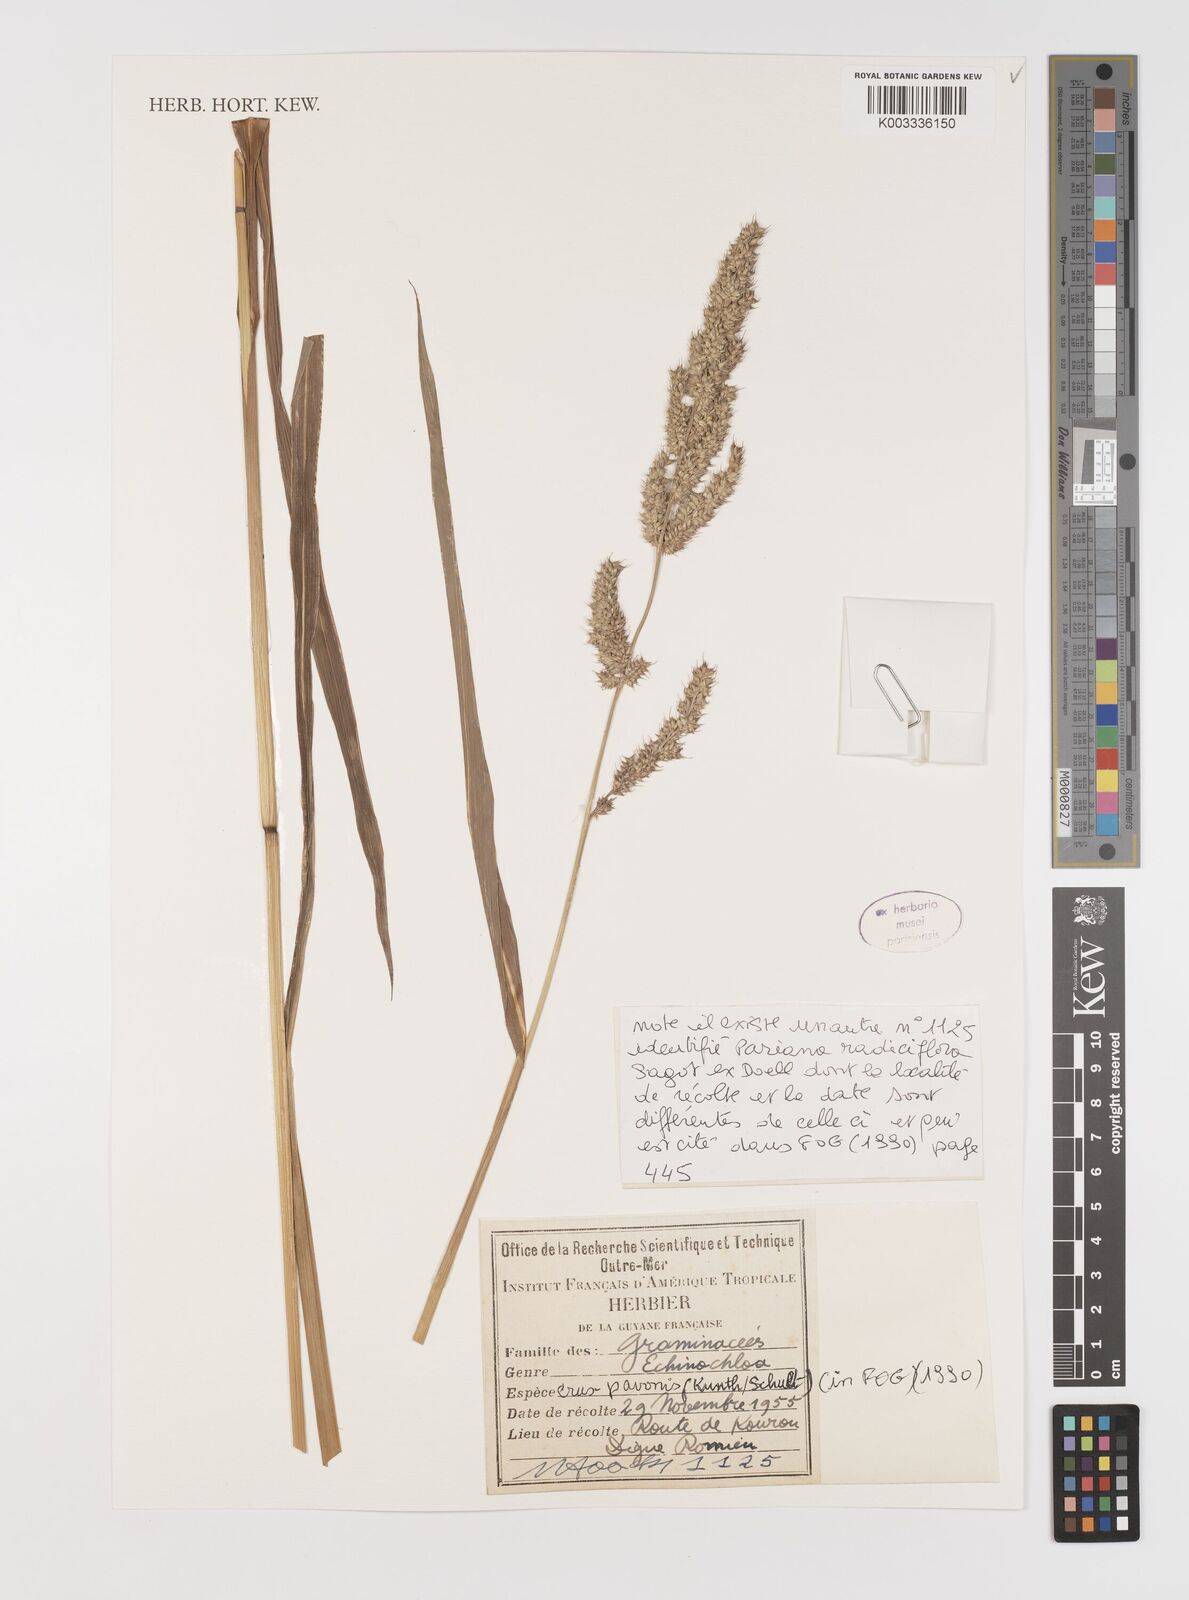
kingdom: Plantae
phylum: Tracheophyta
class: Liliopsida
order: Poales
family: Poaceae
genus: Echinochloa
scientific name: Echinochloa crus-pavonis
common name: Gulf cockspur grass
